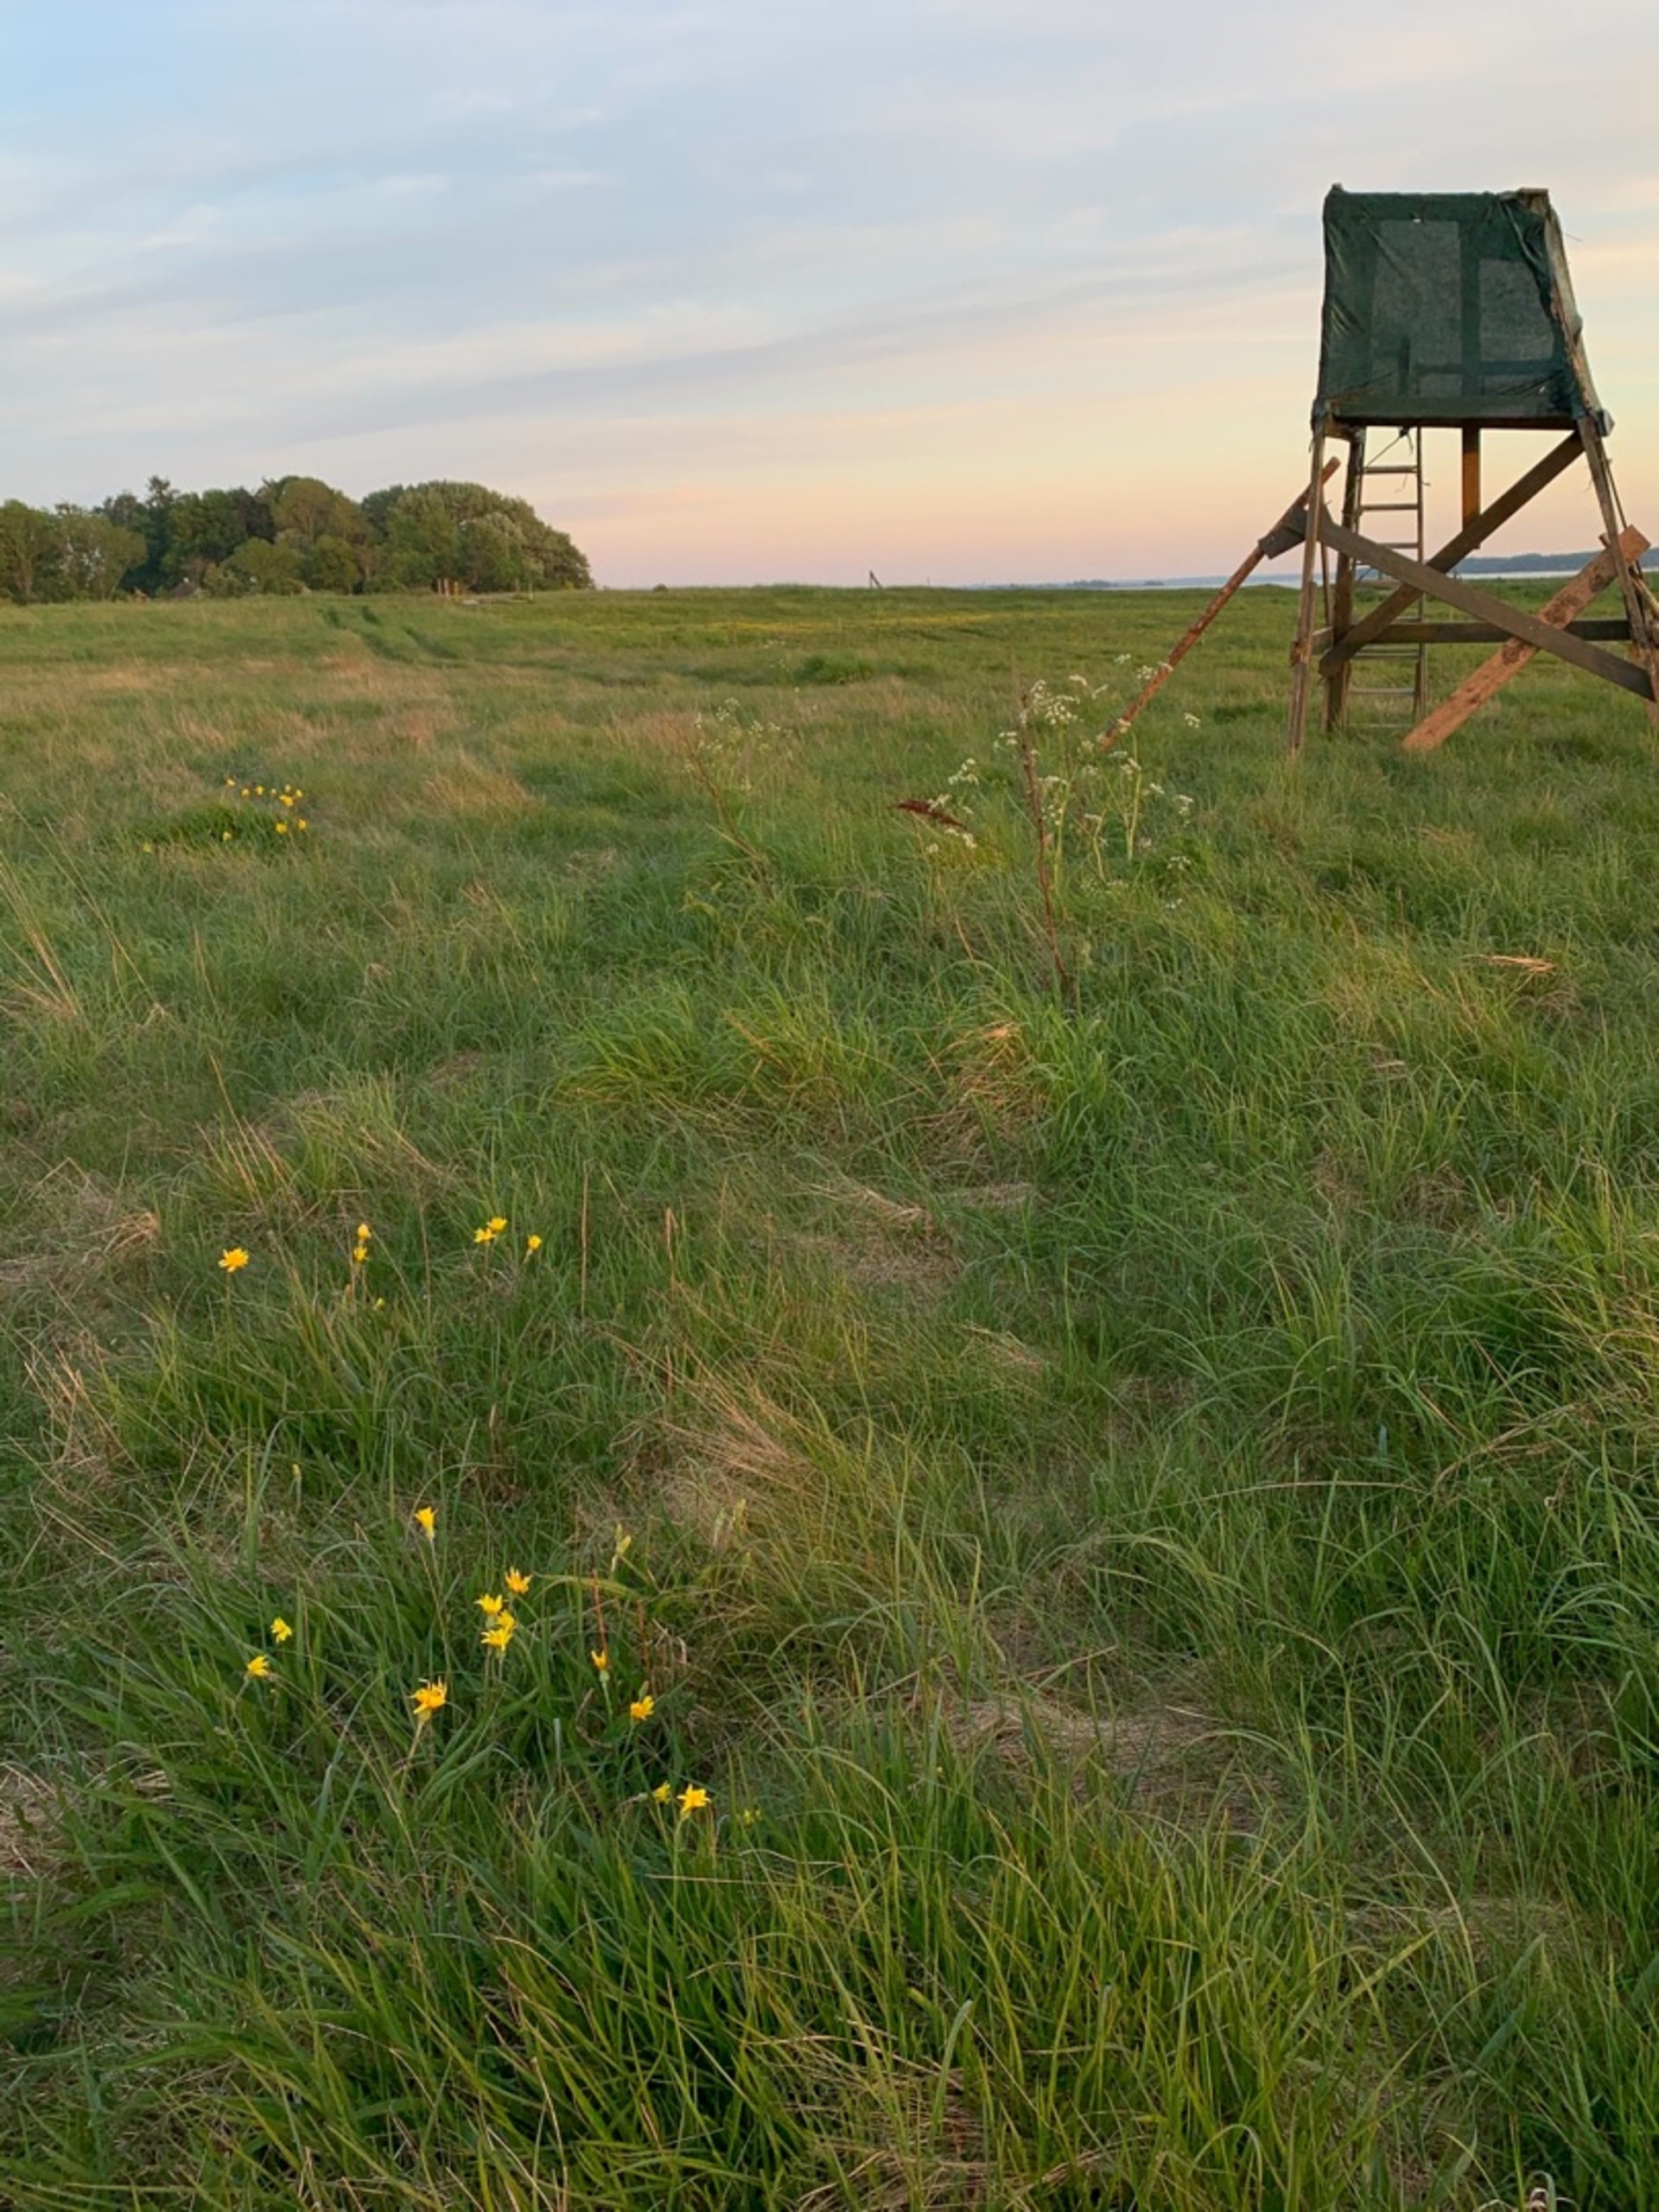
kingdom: Plantae
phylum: Tracheophyta
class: Magnoliopsida
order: Asterales
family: Asteraceae
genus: Scorzonera
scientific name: Scorzonera humilis
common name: Lav skorsoner
